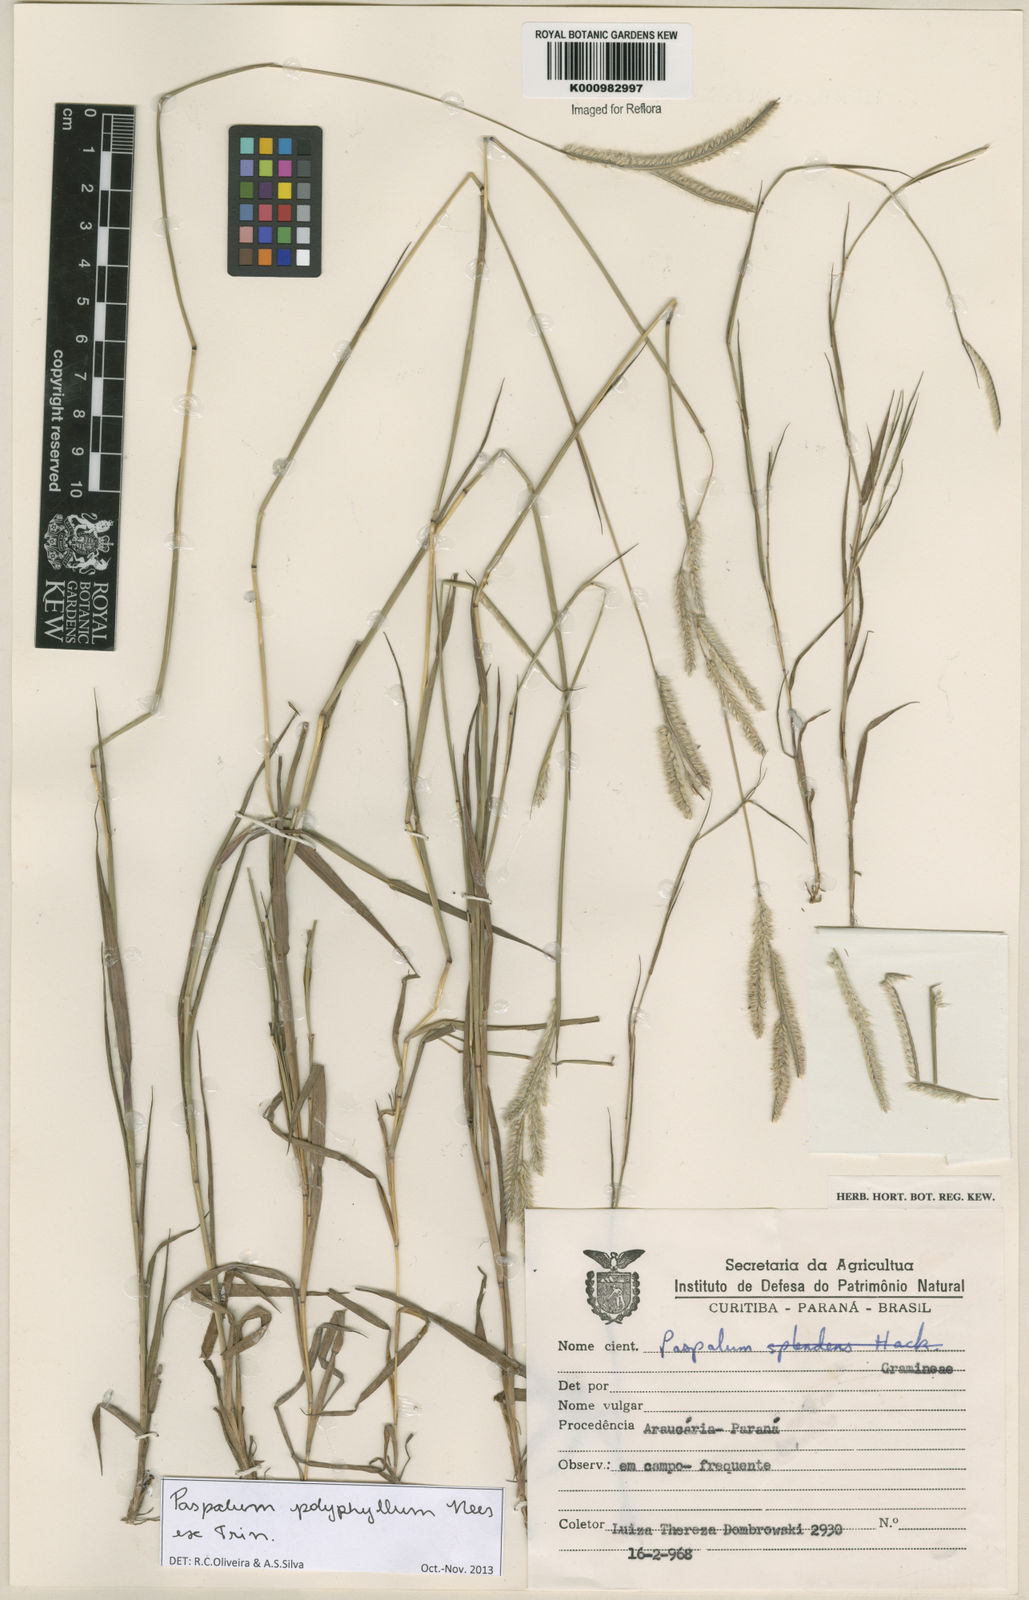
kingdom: Plantae
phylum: Tracheophyta
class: Liliopsida
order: Poales
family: Poaceae
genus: Paspalum
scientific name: Paspalum
